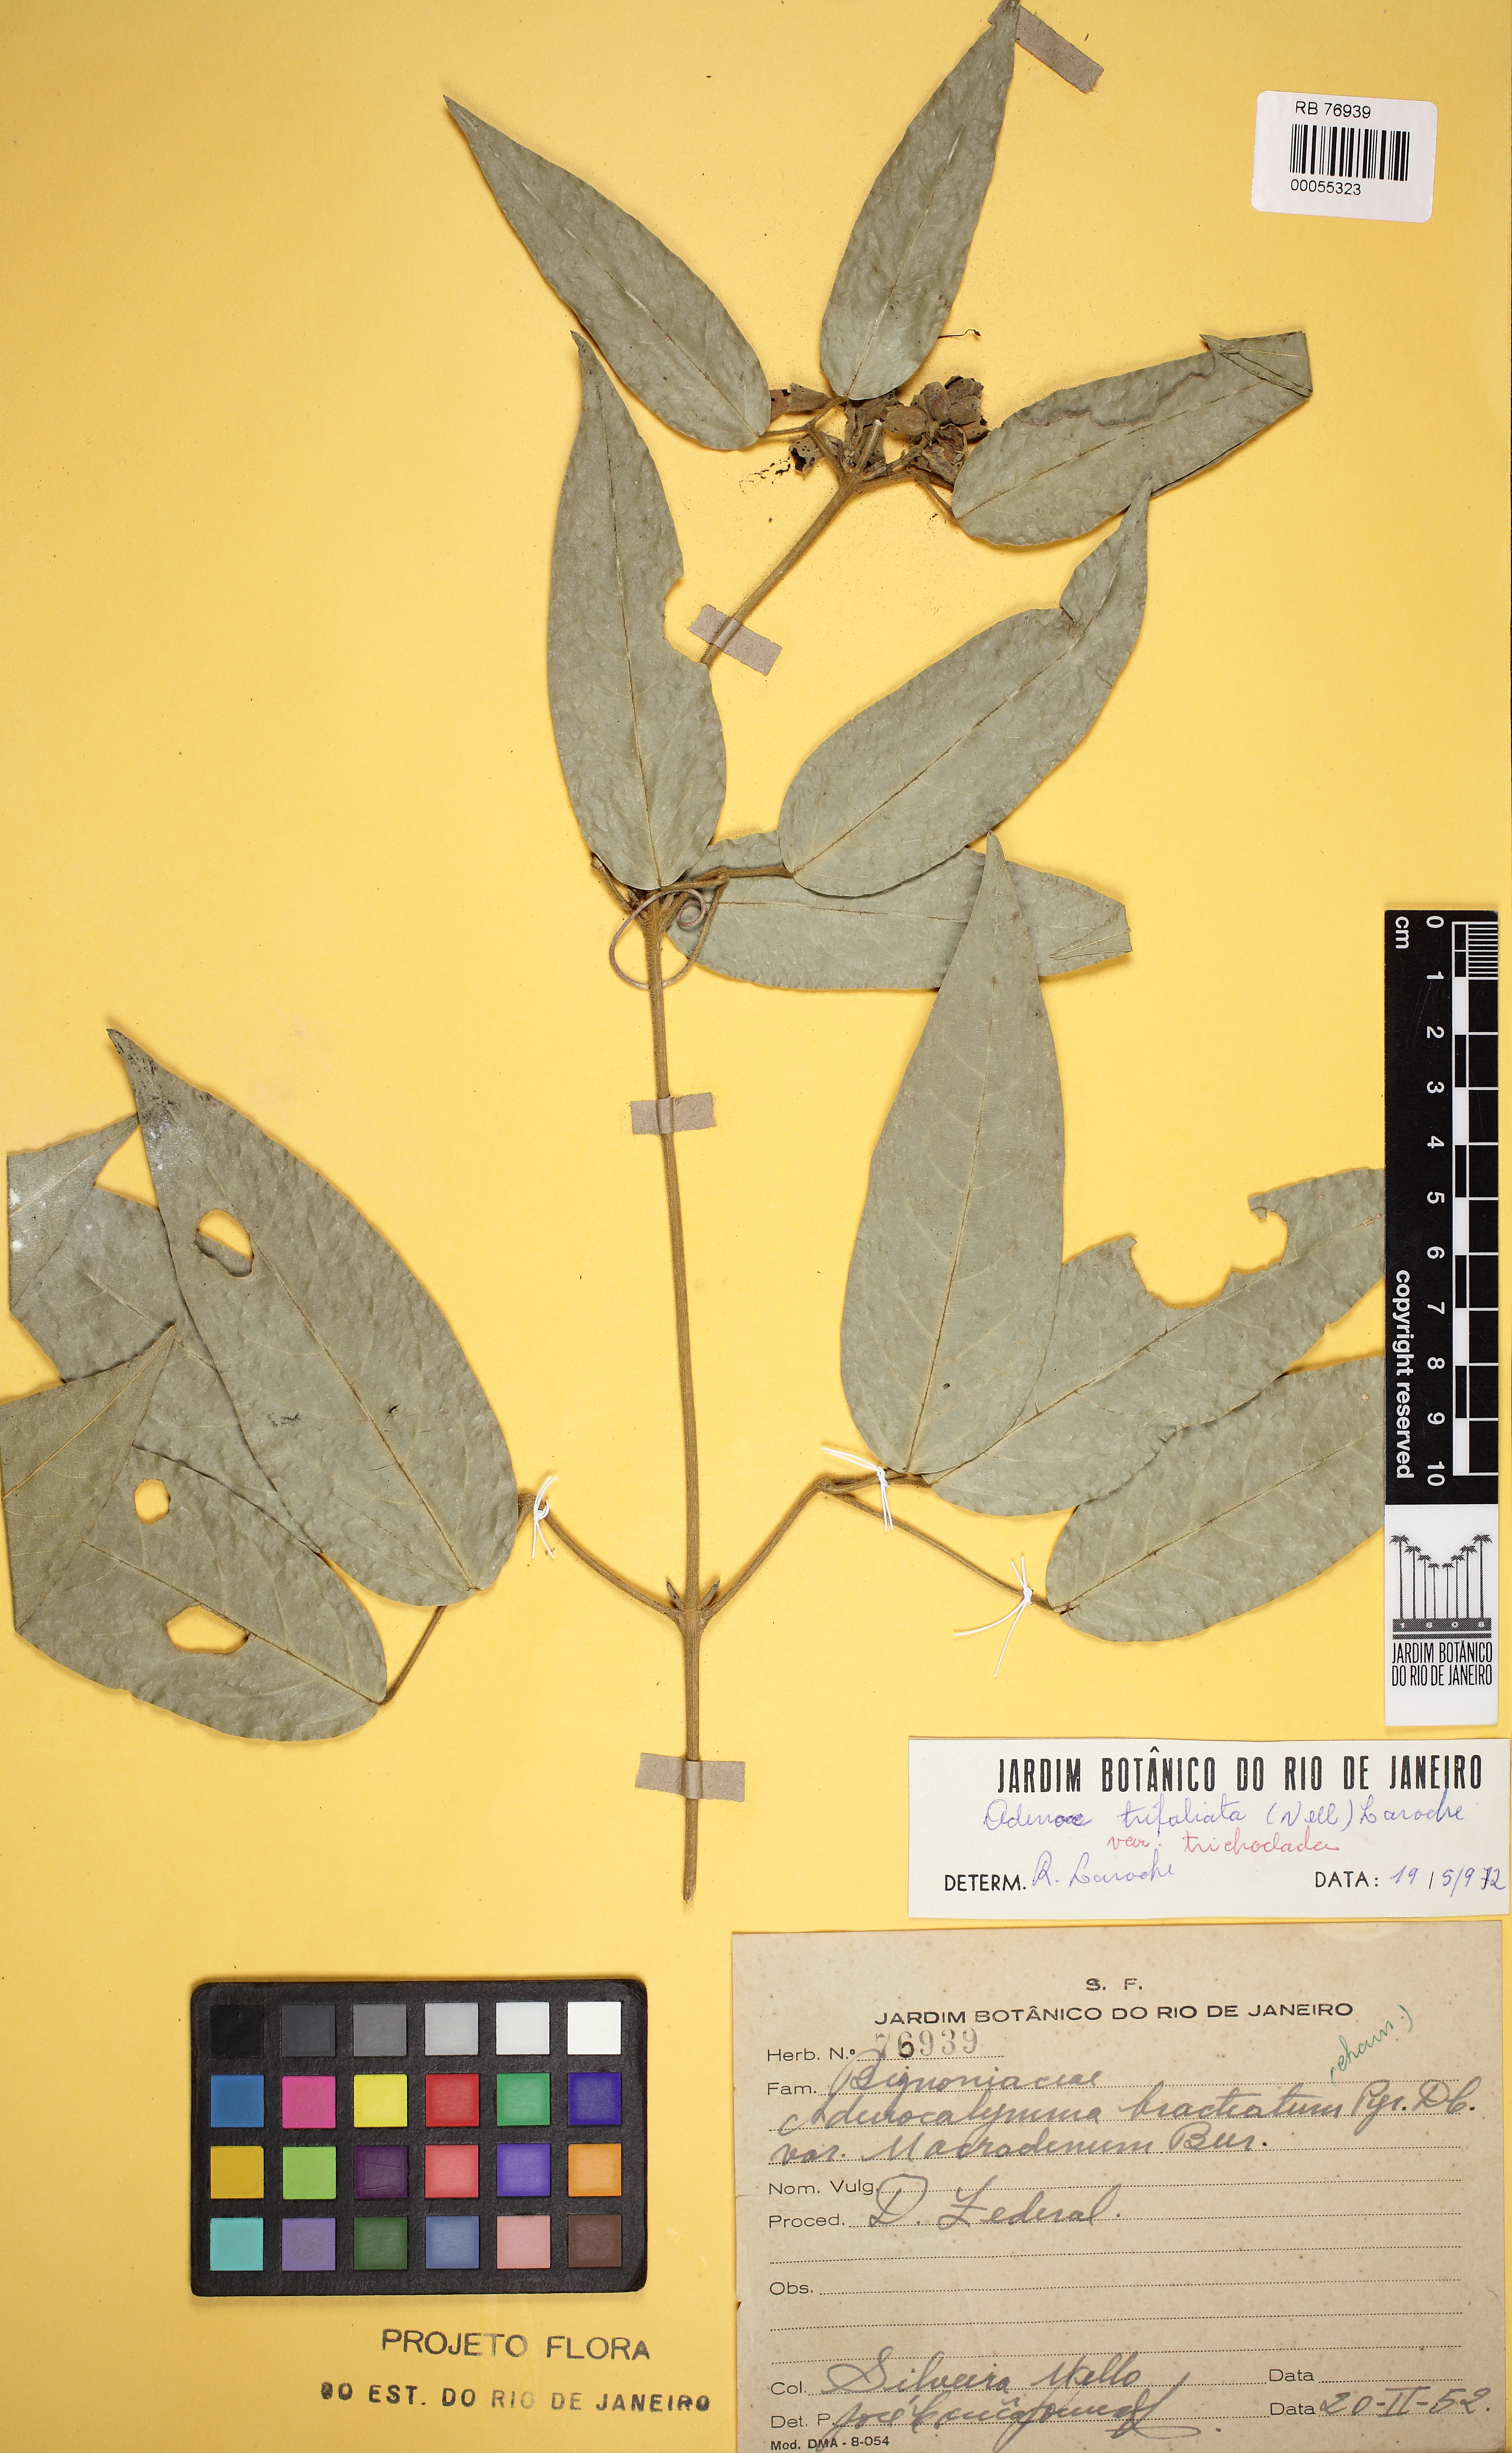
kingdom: Plantae
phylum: Tracheophyta
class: Magnoliopsida
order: Lamiales
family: Bignoniaceae
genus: Adenocalymma
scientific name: Adenocalymma bracteatum
